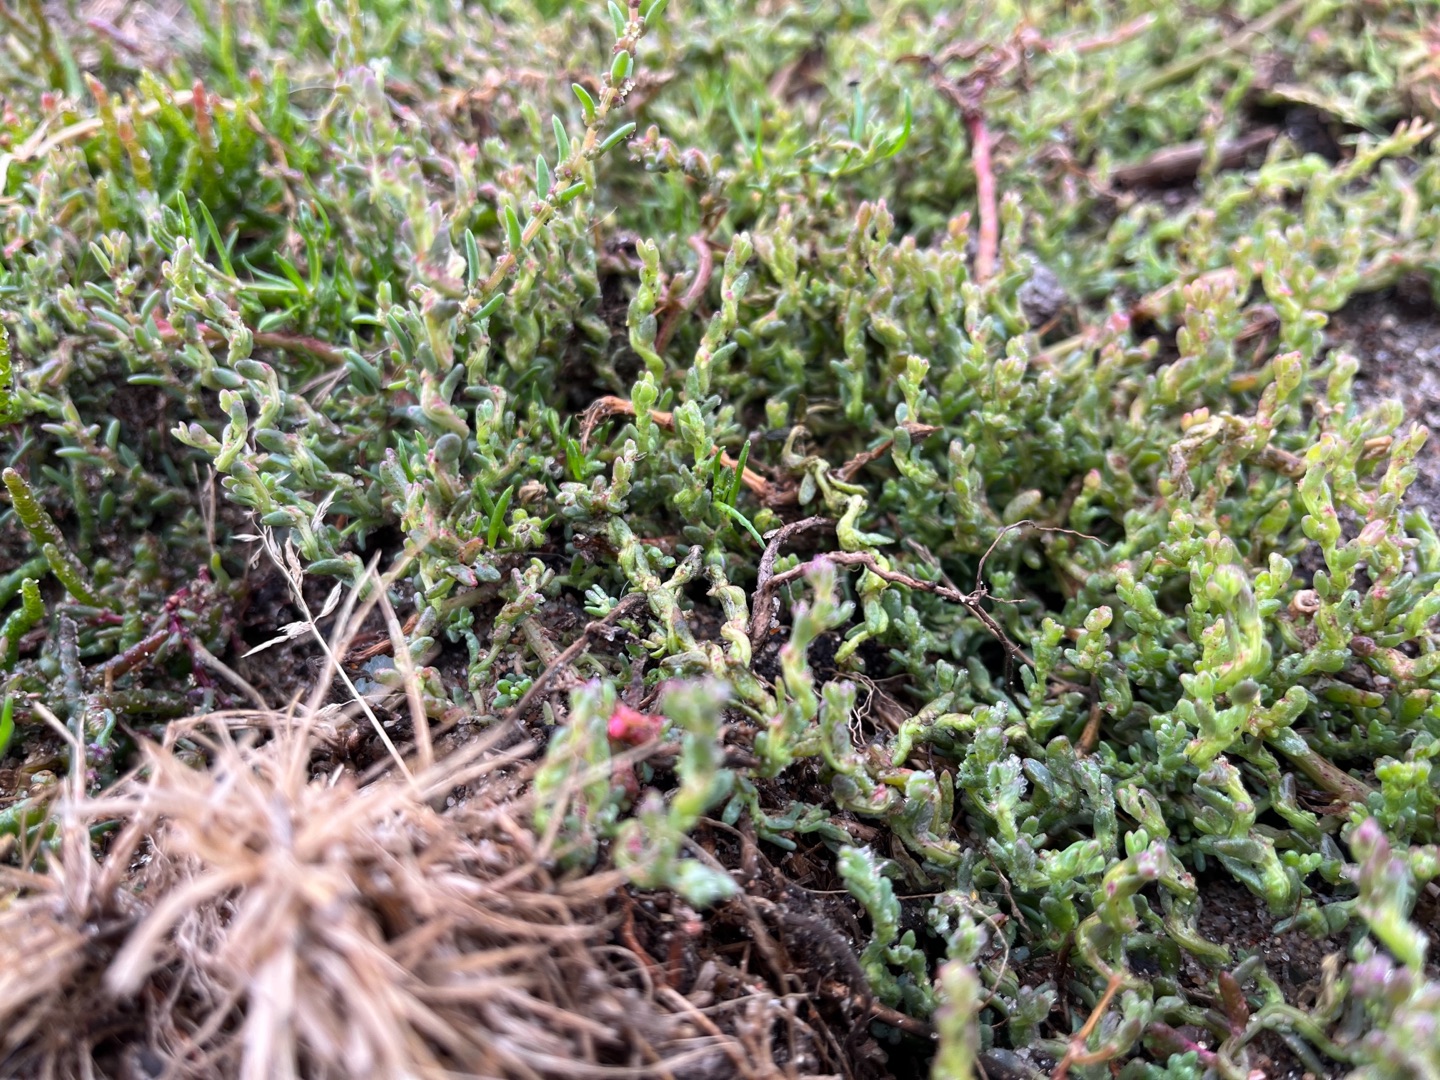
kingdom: Plantae
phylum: Tracheophyta
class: Magnoliopsida
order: Caryophyllales
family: Amaranthaceae
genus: Spirobassia
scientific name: Spirobassia hirsuta
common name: Tangurt
